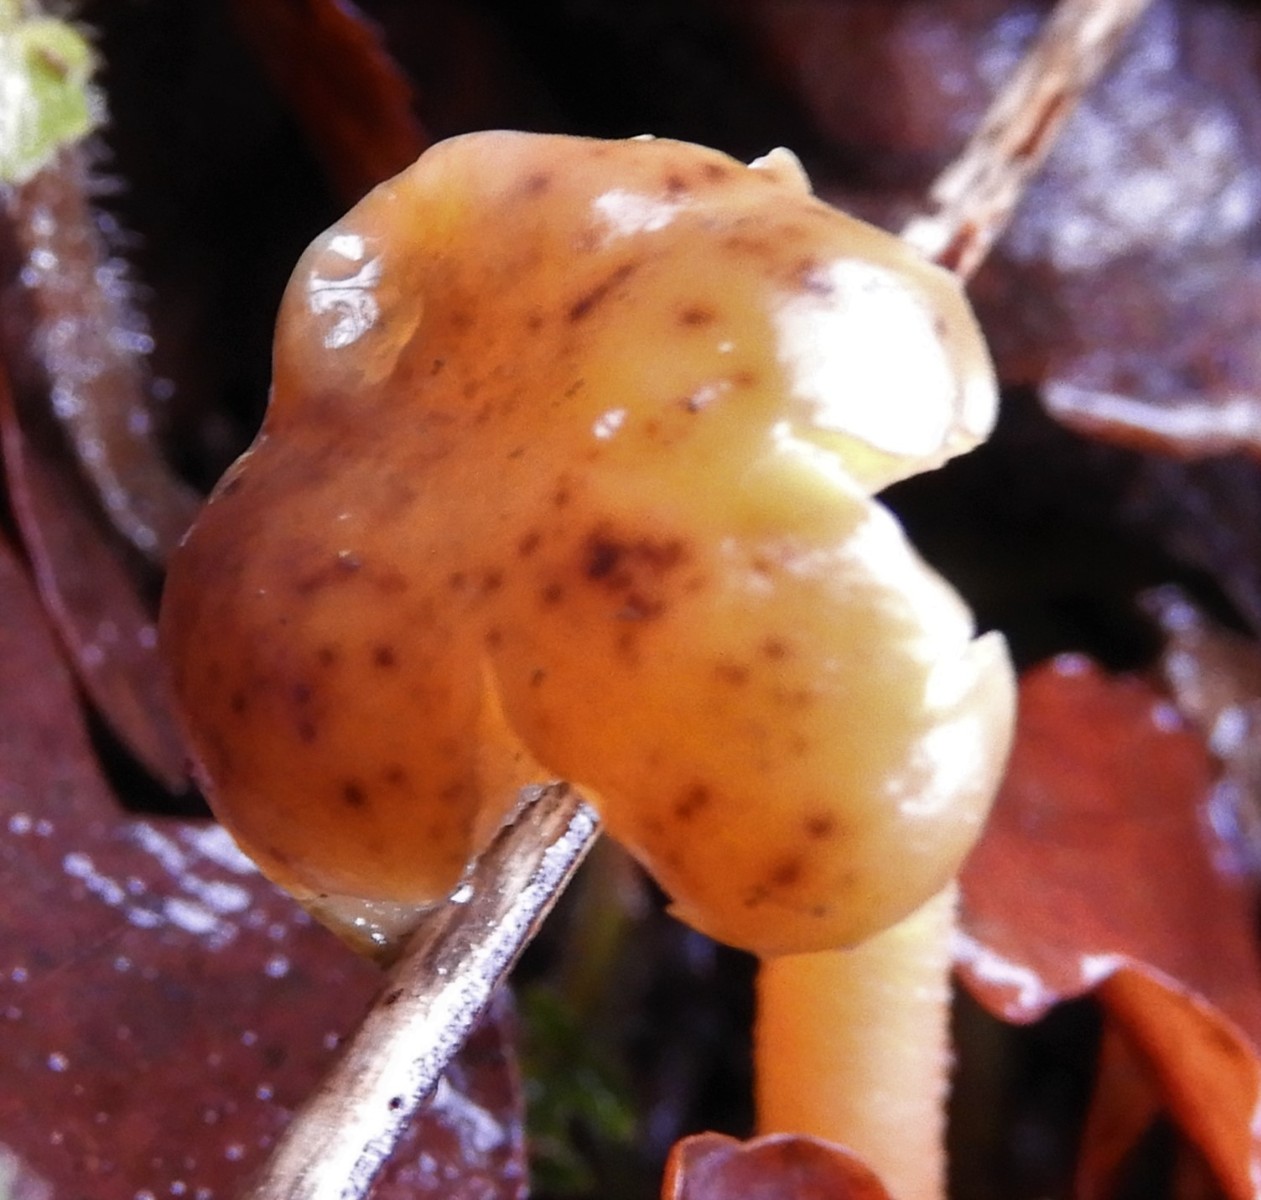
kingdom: Fungi
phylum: Ascomycota
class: Leotiomycetes
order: Leotiales
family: Leotiaceae
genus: Leotia
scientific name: Leotia lubrica
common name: ravsvamp
